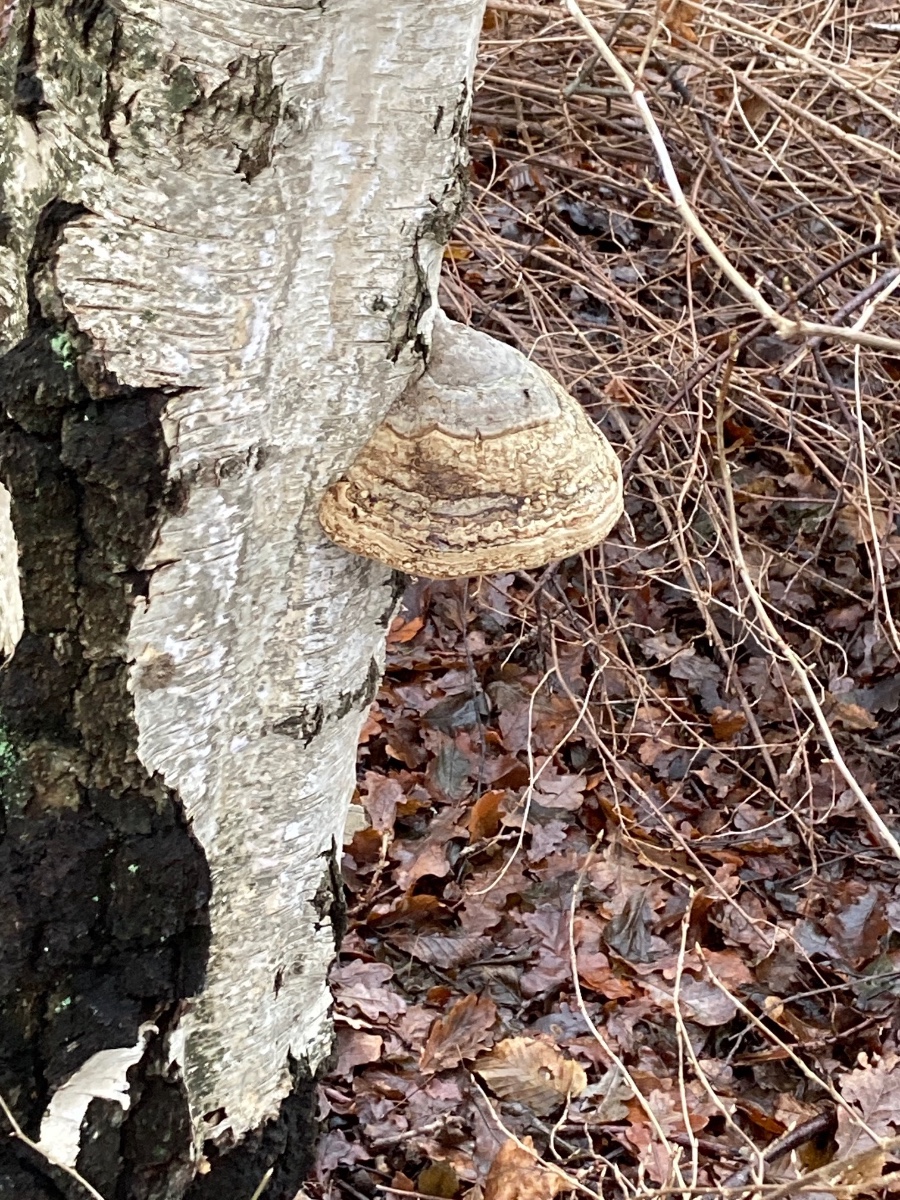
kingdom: Fungi
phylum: Basidiomycota
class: Agaricomycetes
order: Polyporales
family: Polyporaceae
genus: Fomes
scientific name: Fomes fomentarius
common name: tøndersvamp
